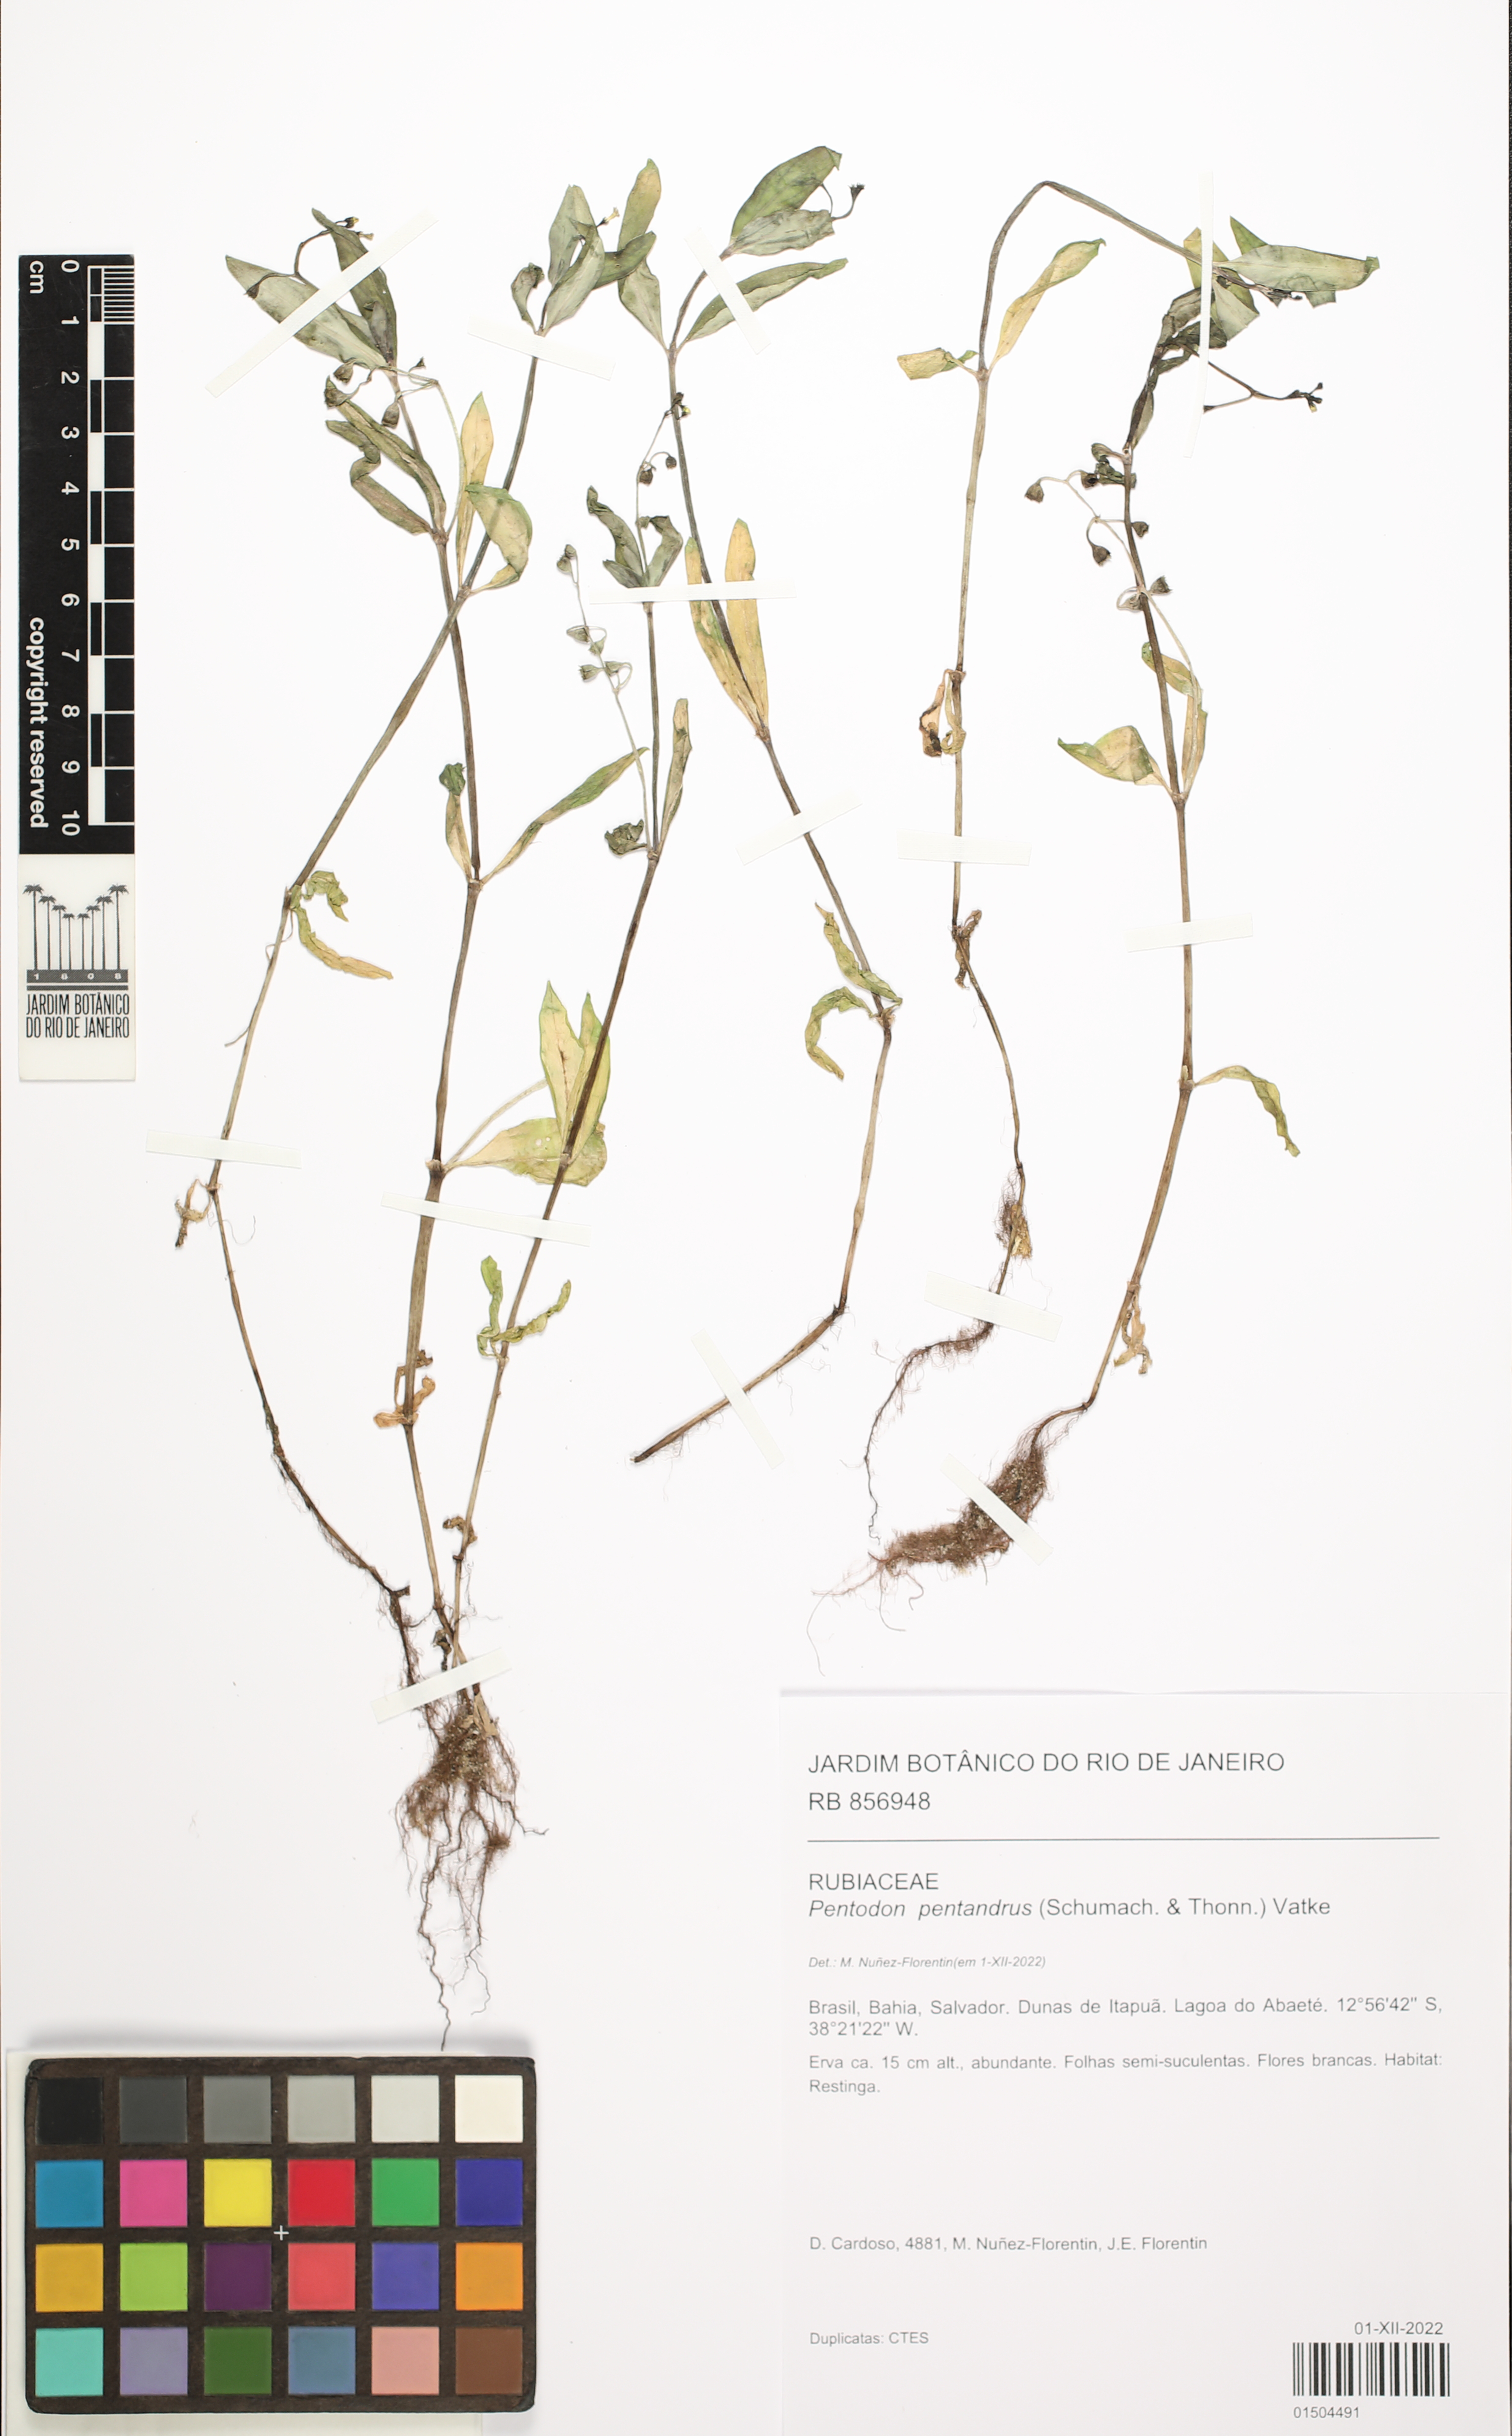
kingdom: Plantae
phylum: Tracheophyta
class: Magnoliopsida
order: Gentianales
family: Rubiaceae
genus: Pentodon
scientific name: Pentodon pentandrus
